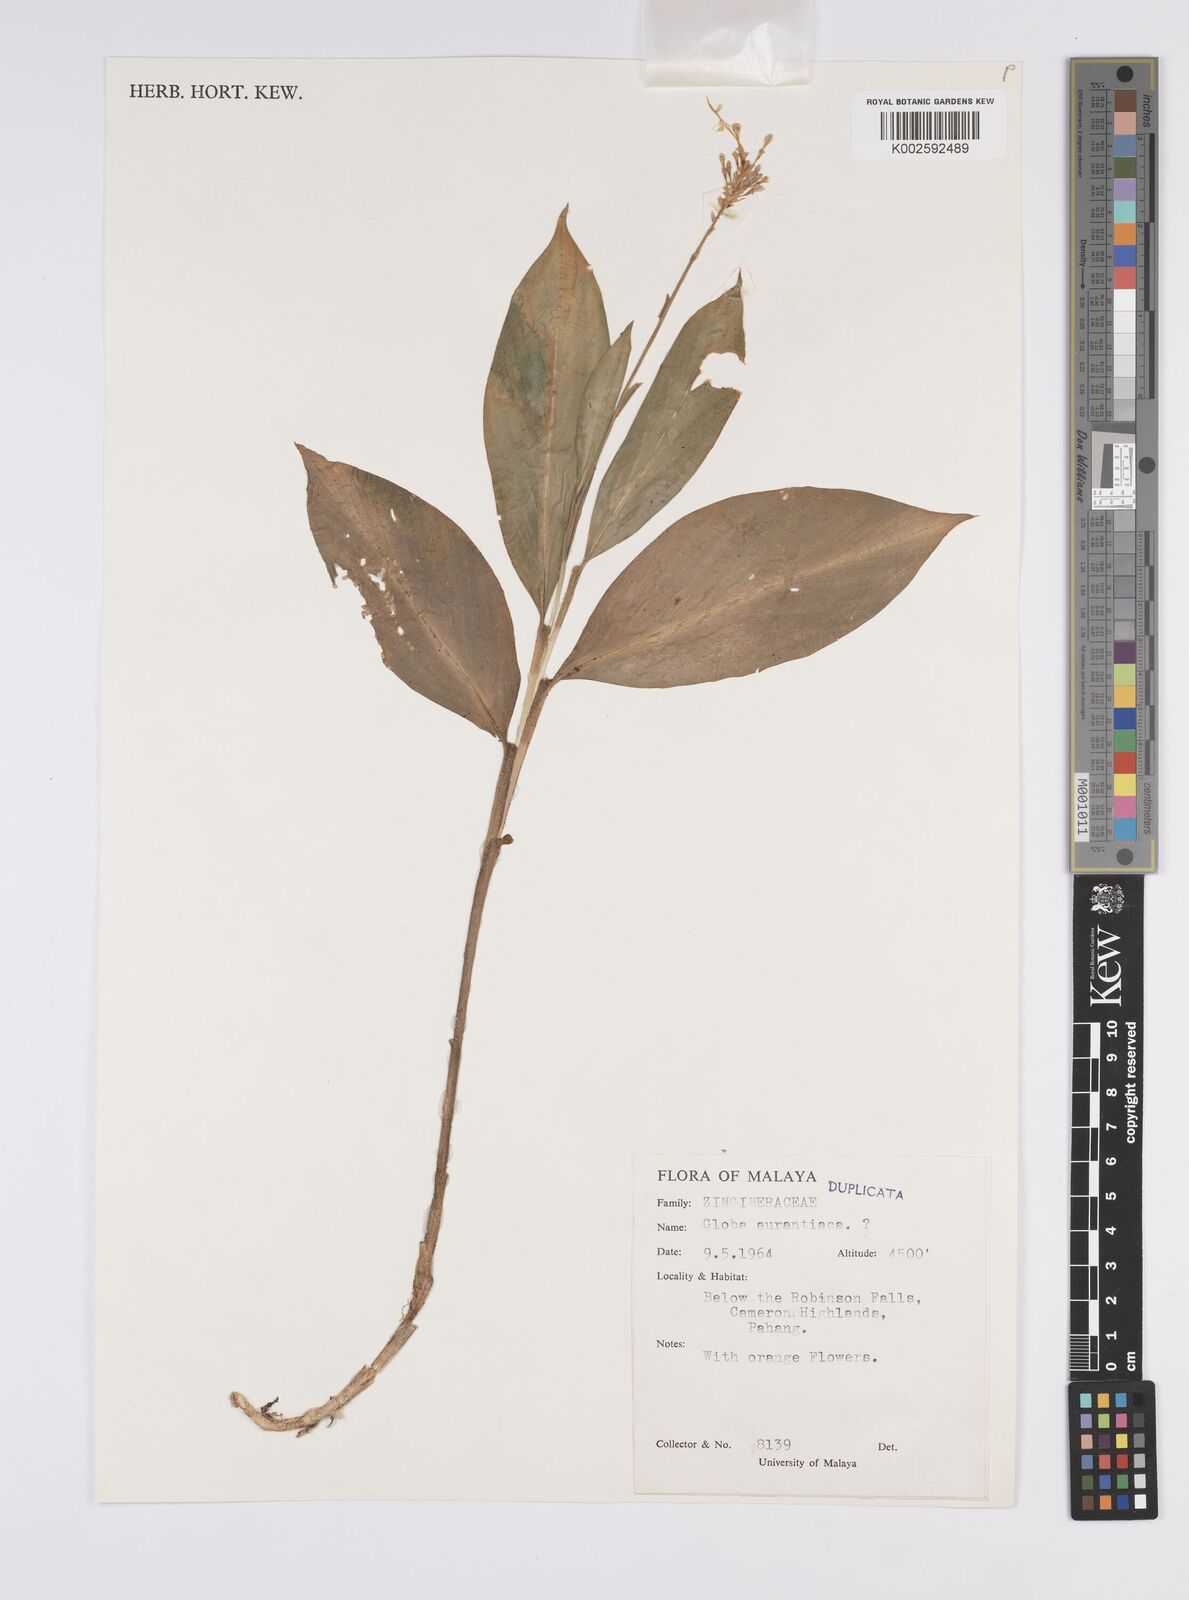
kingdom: Plantae
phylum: Tracheophyta
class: Liliopsida
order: Zingiberales
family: Zingiberaceae
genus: Globba
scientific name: Globba aurantiaca
